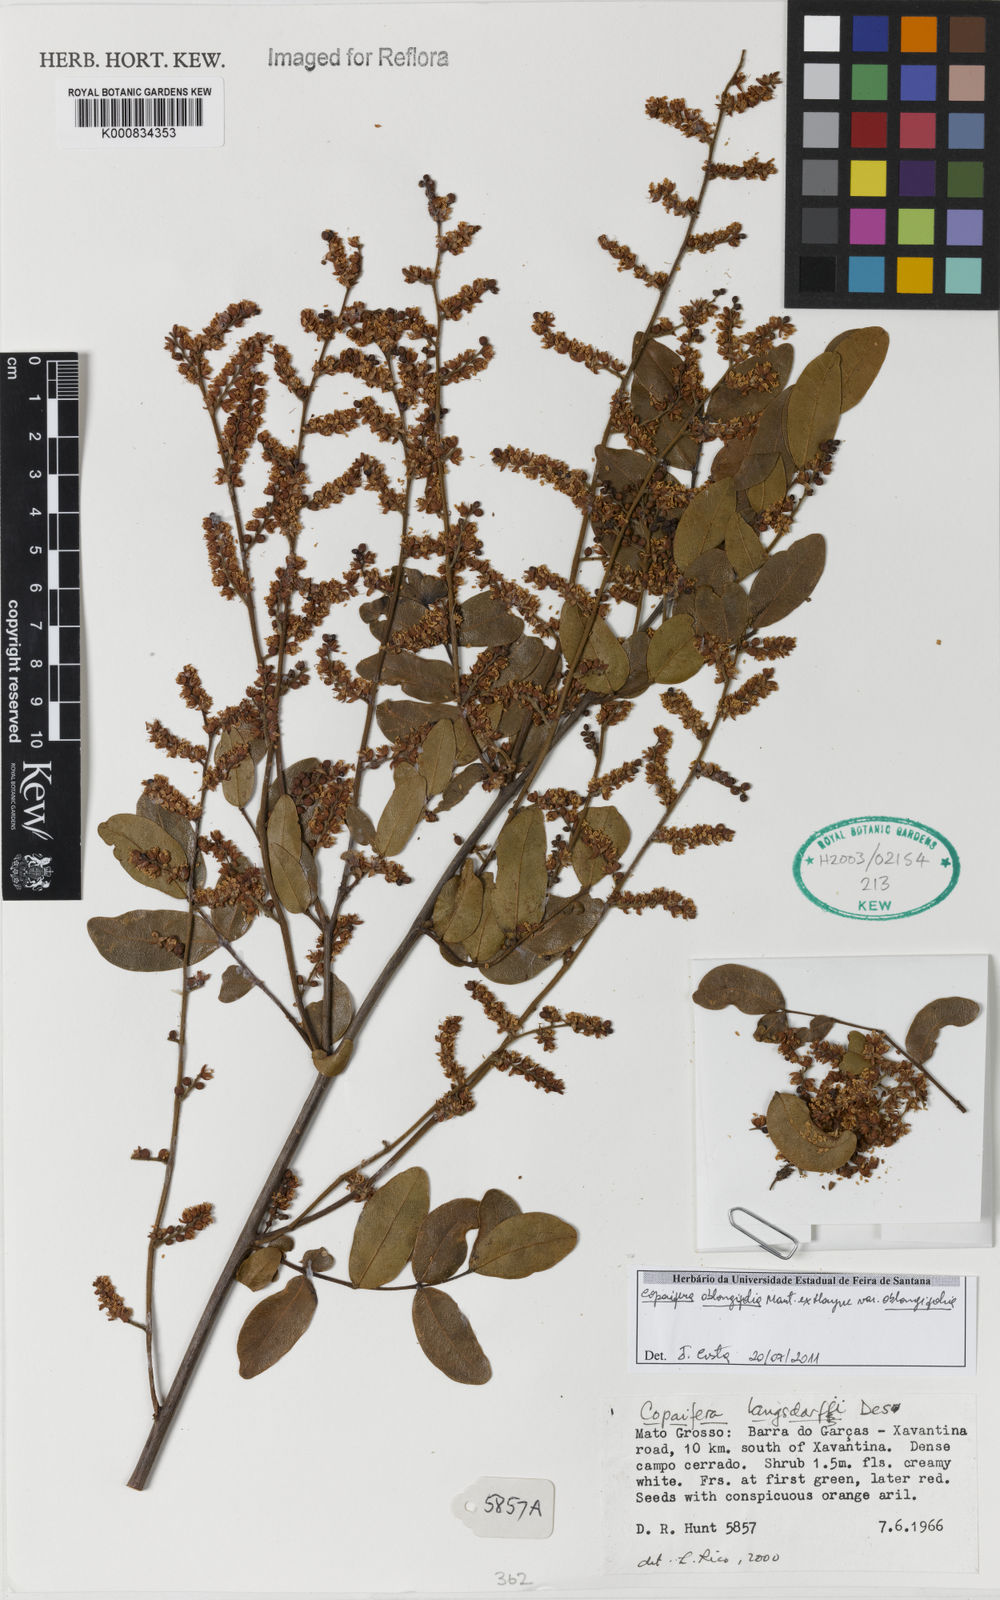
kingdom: Plantae
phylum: Tracheophyta
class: Magnoliopsida
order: Fabales
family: Fabaceae
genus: Copaifera
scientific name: Copaifera
